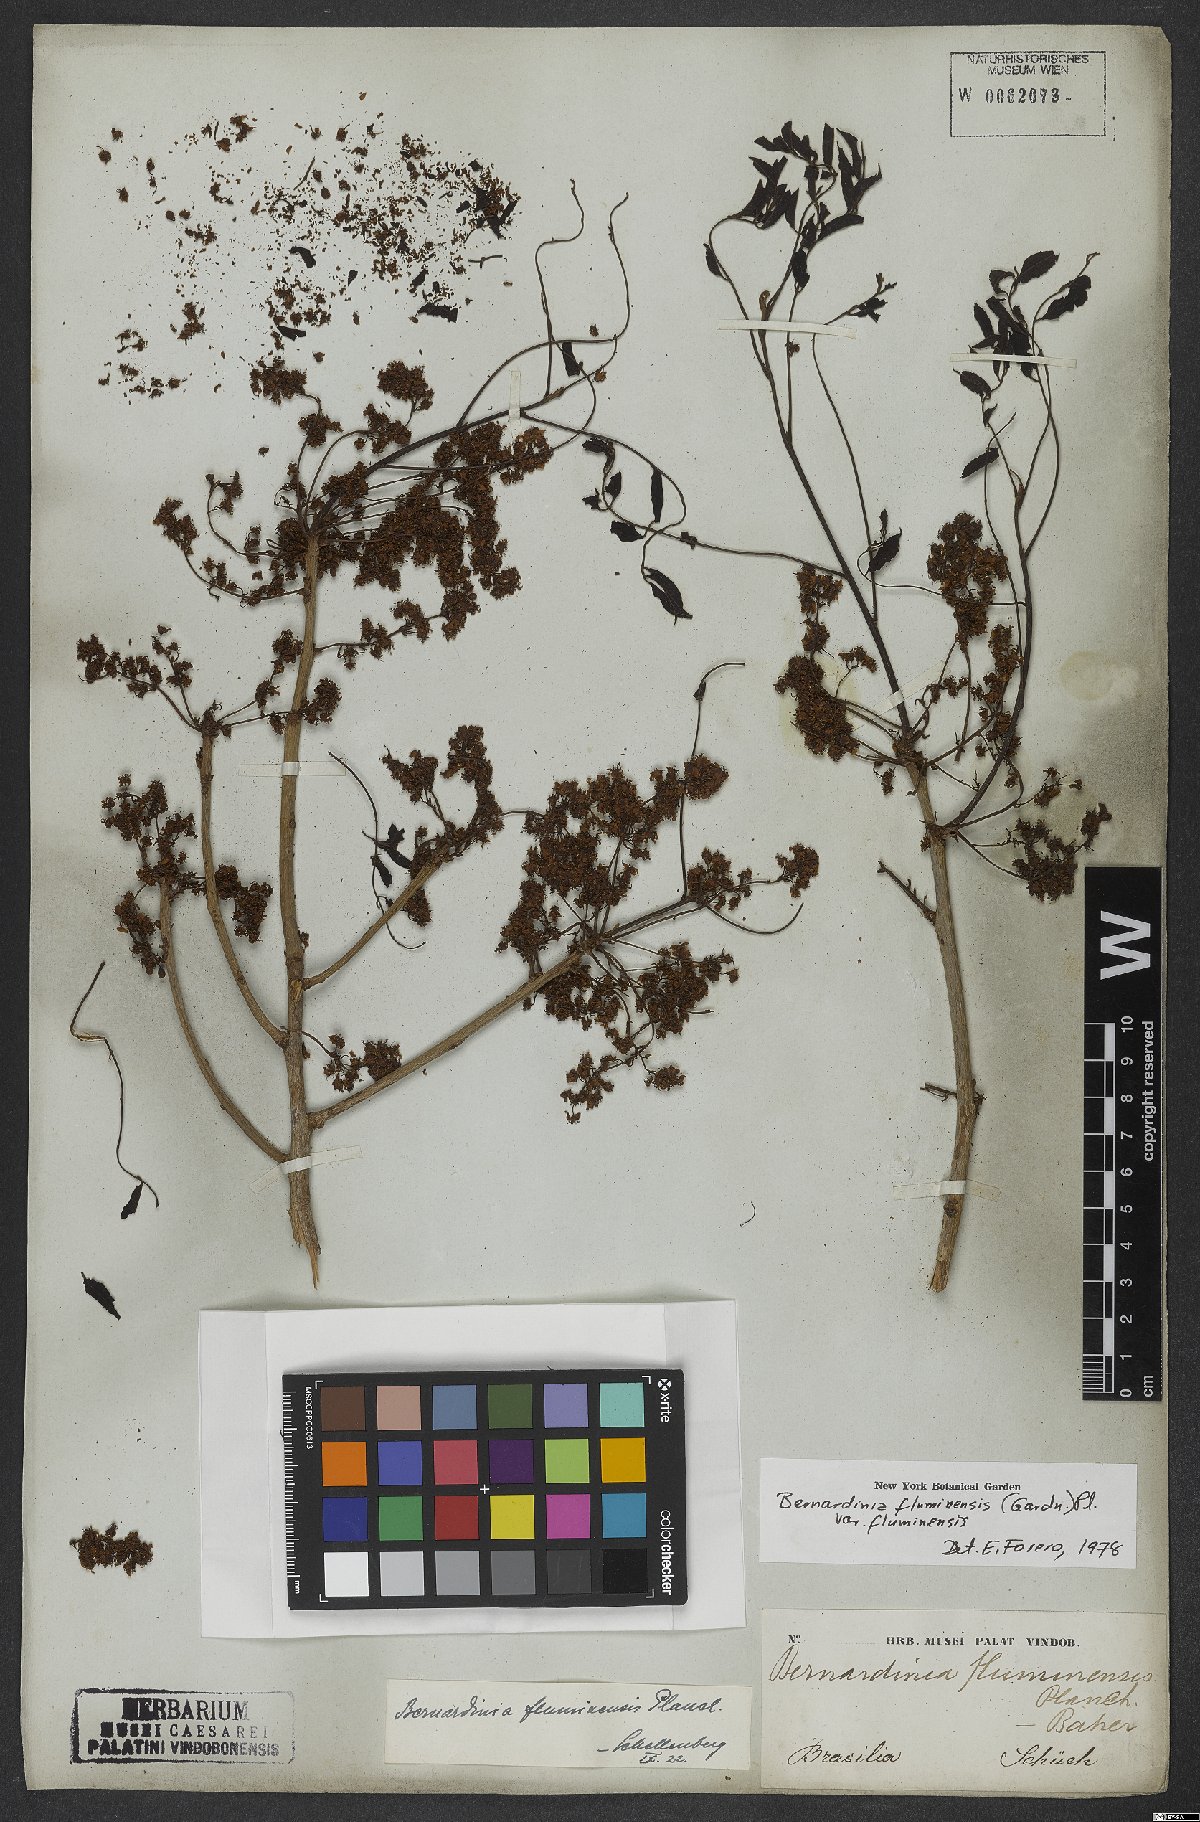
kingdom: Plantae
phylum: Tracheophyta
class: Magnoliopsida
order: Oxalidales
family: Connaraceae
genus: Rourea
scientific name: Rourea fluminensis
